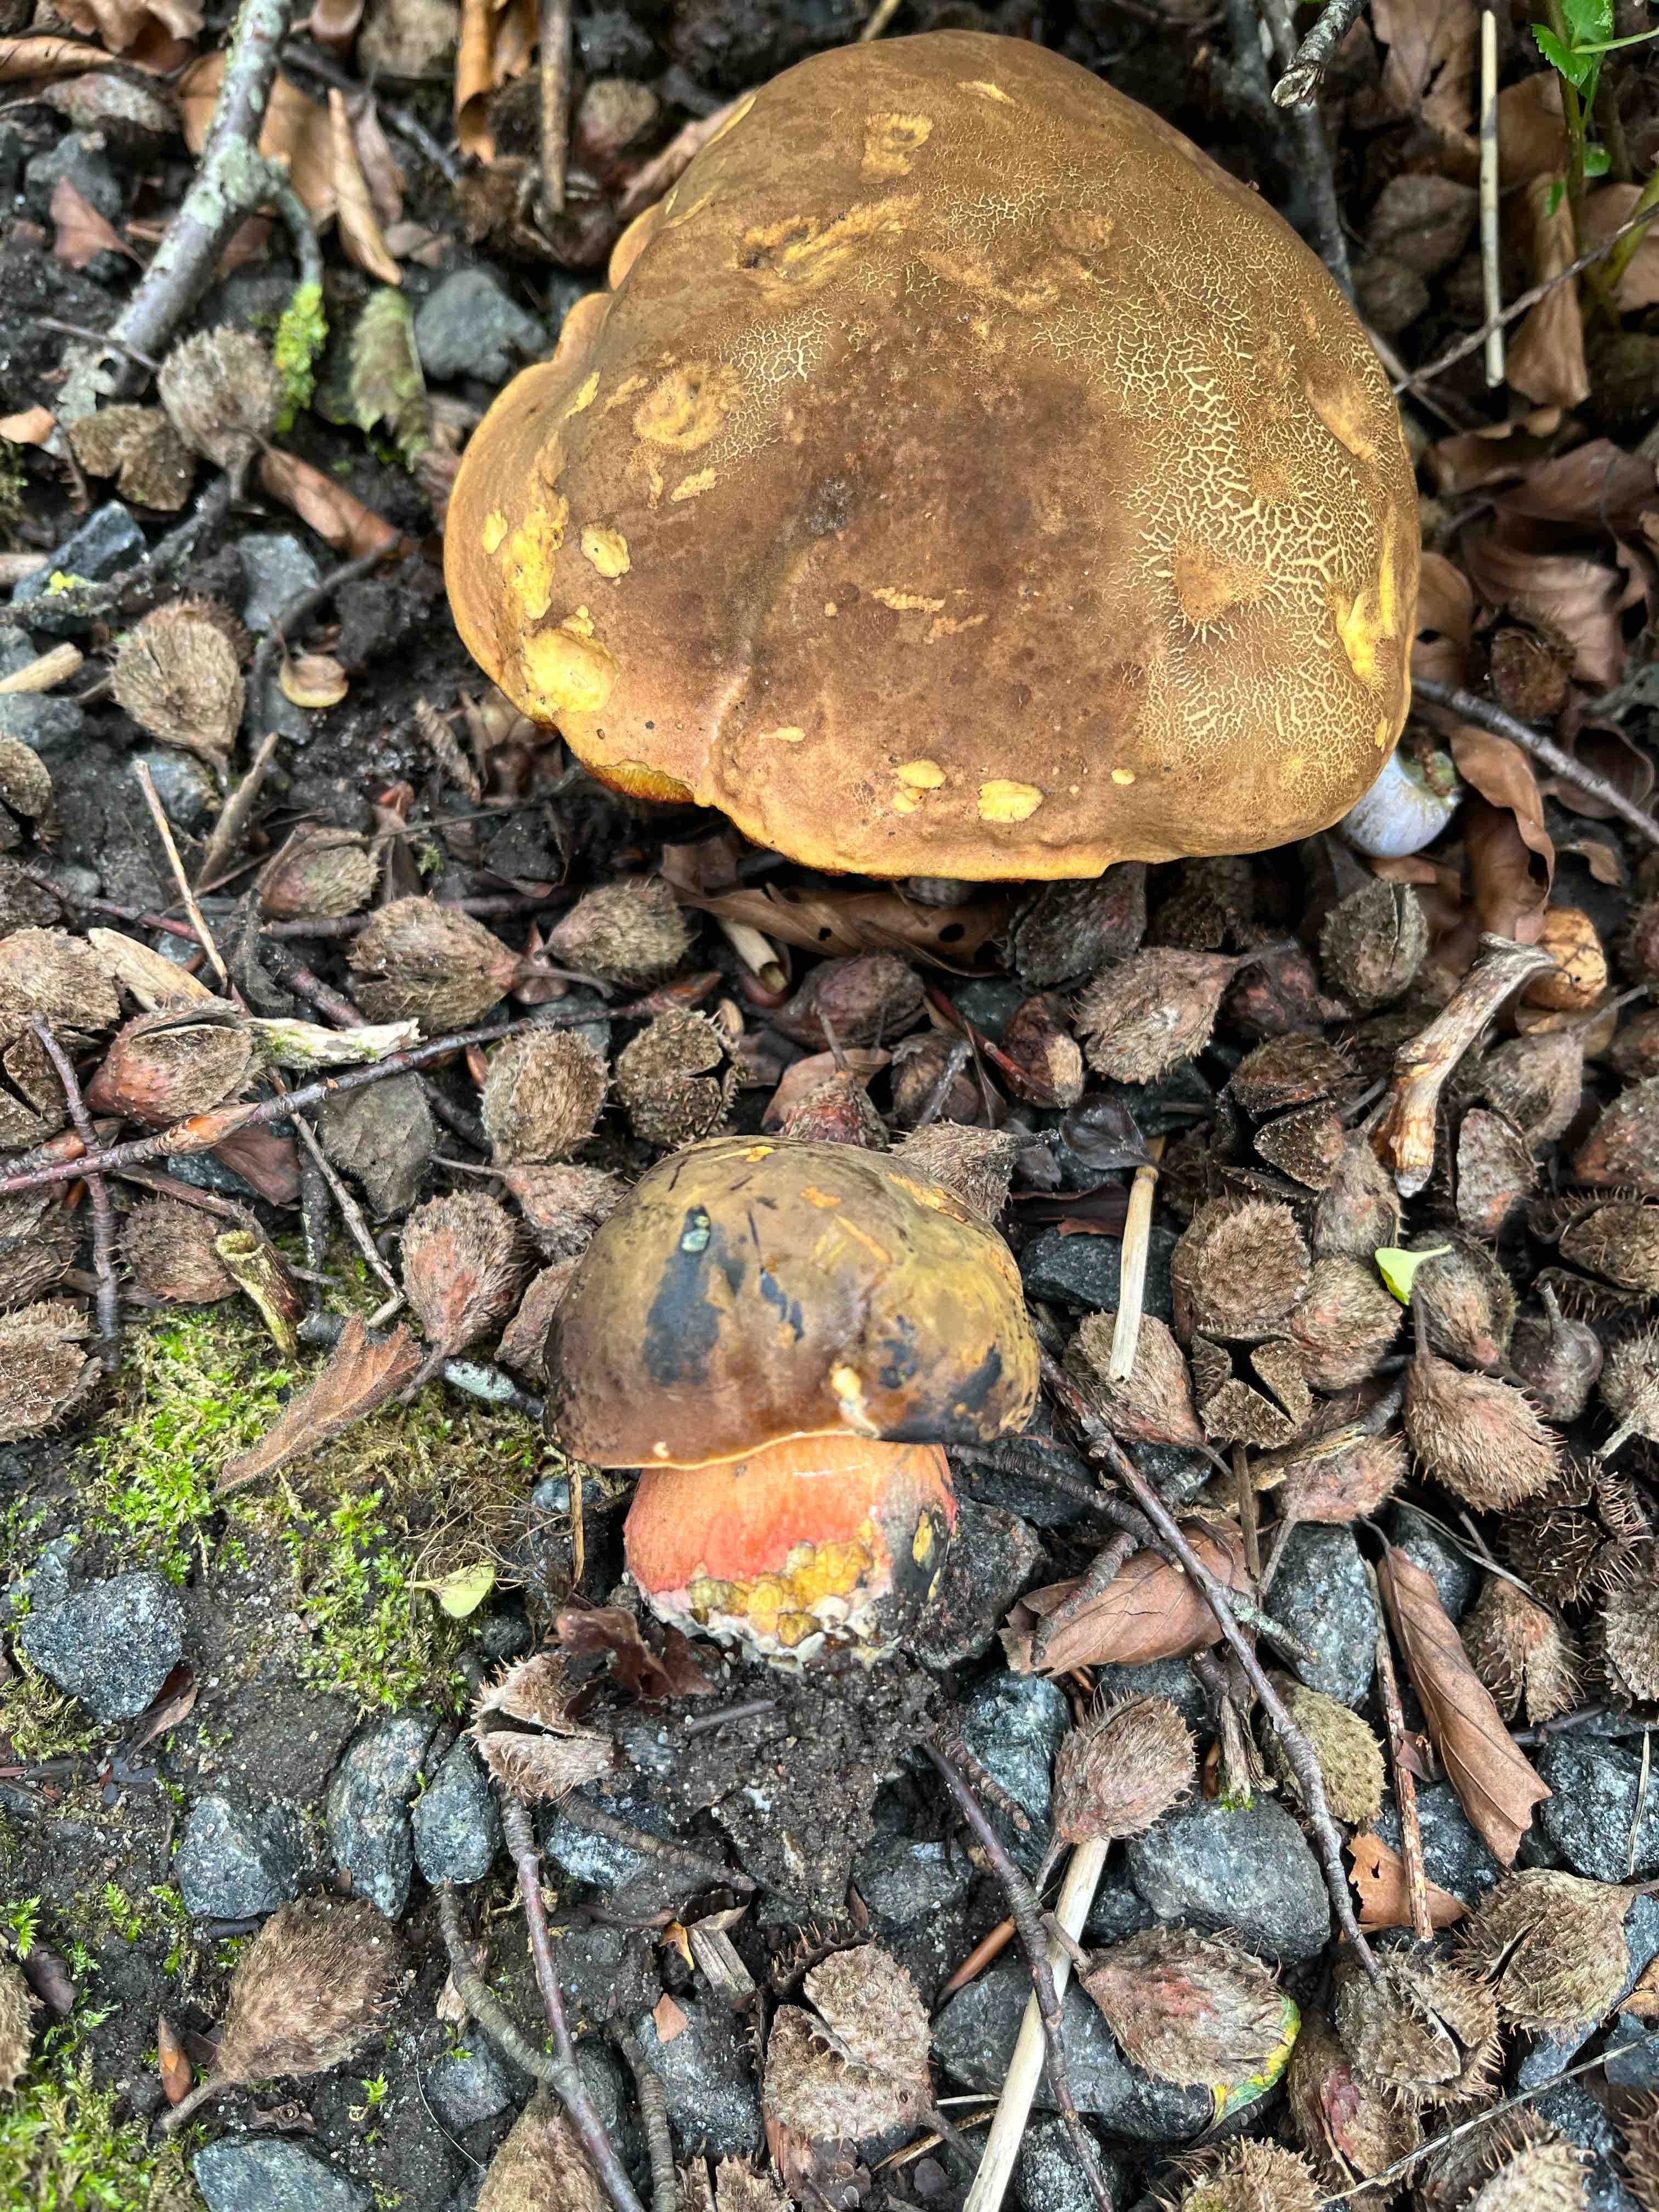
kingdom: Fungi
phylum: Basidiomycota
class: Agaricomycetes
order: Boletales
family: Boletaceae
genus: Neoboletus
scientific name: Neoboletus xanthopus
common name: finprikket indigorørhat
